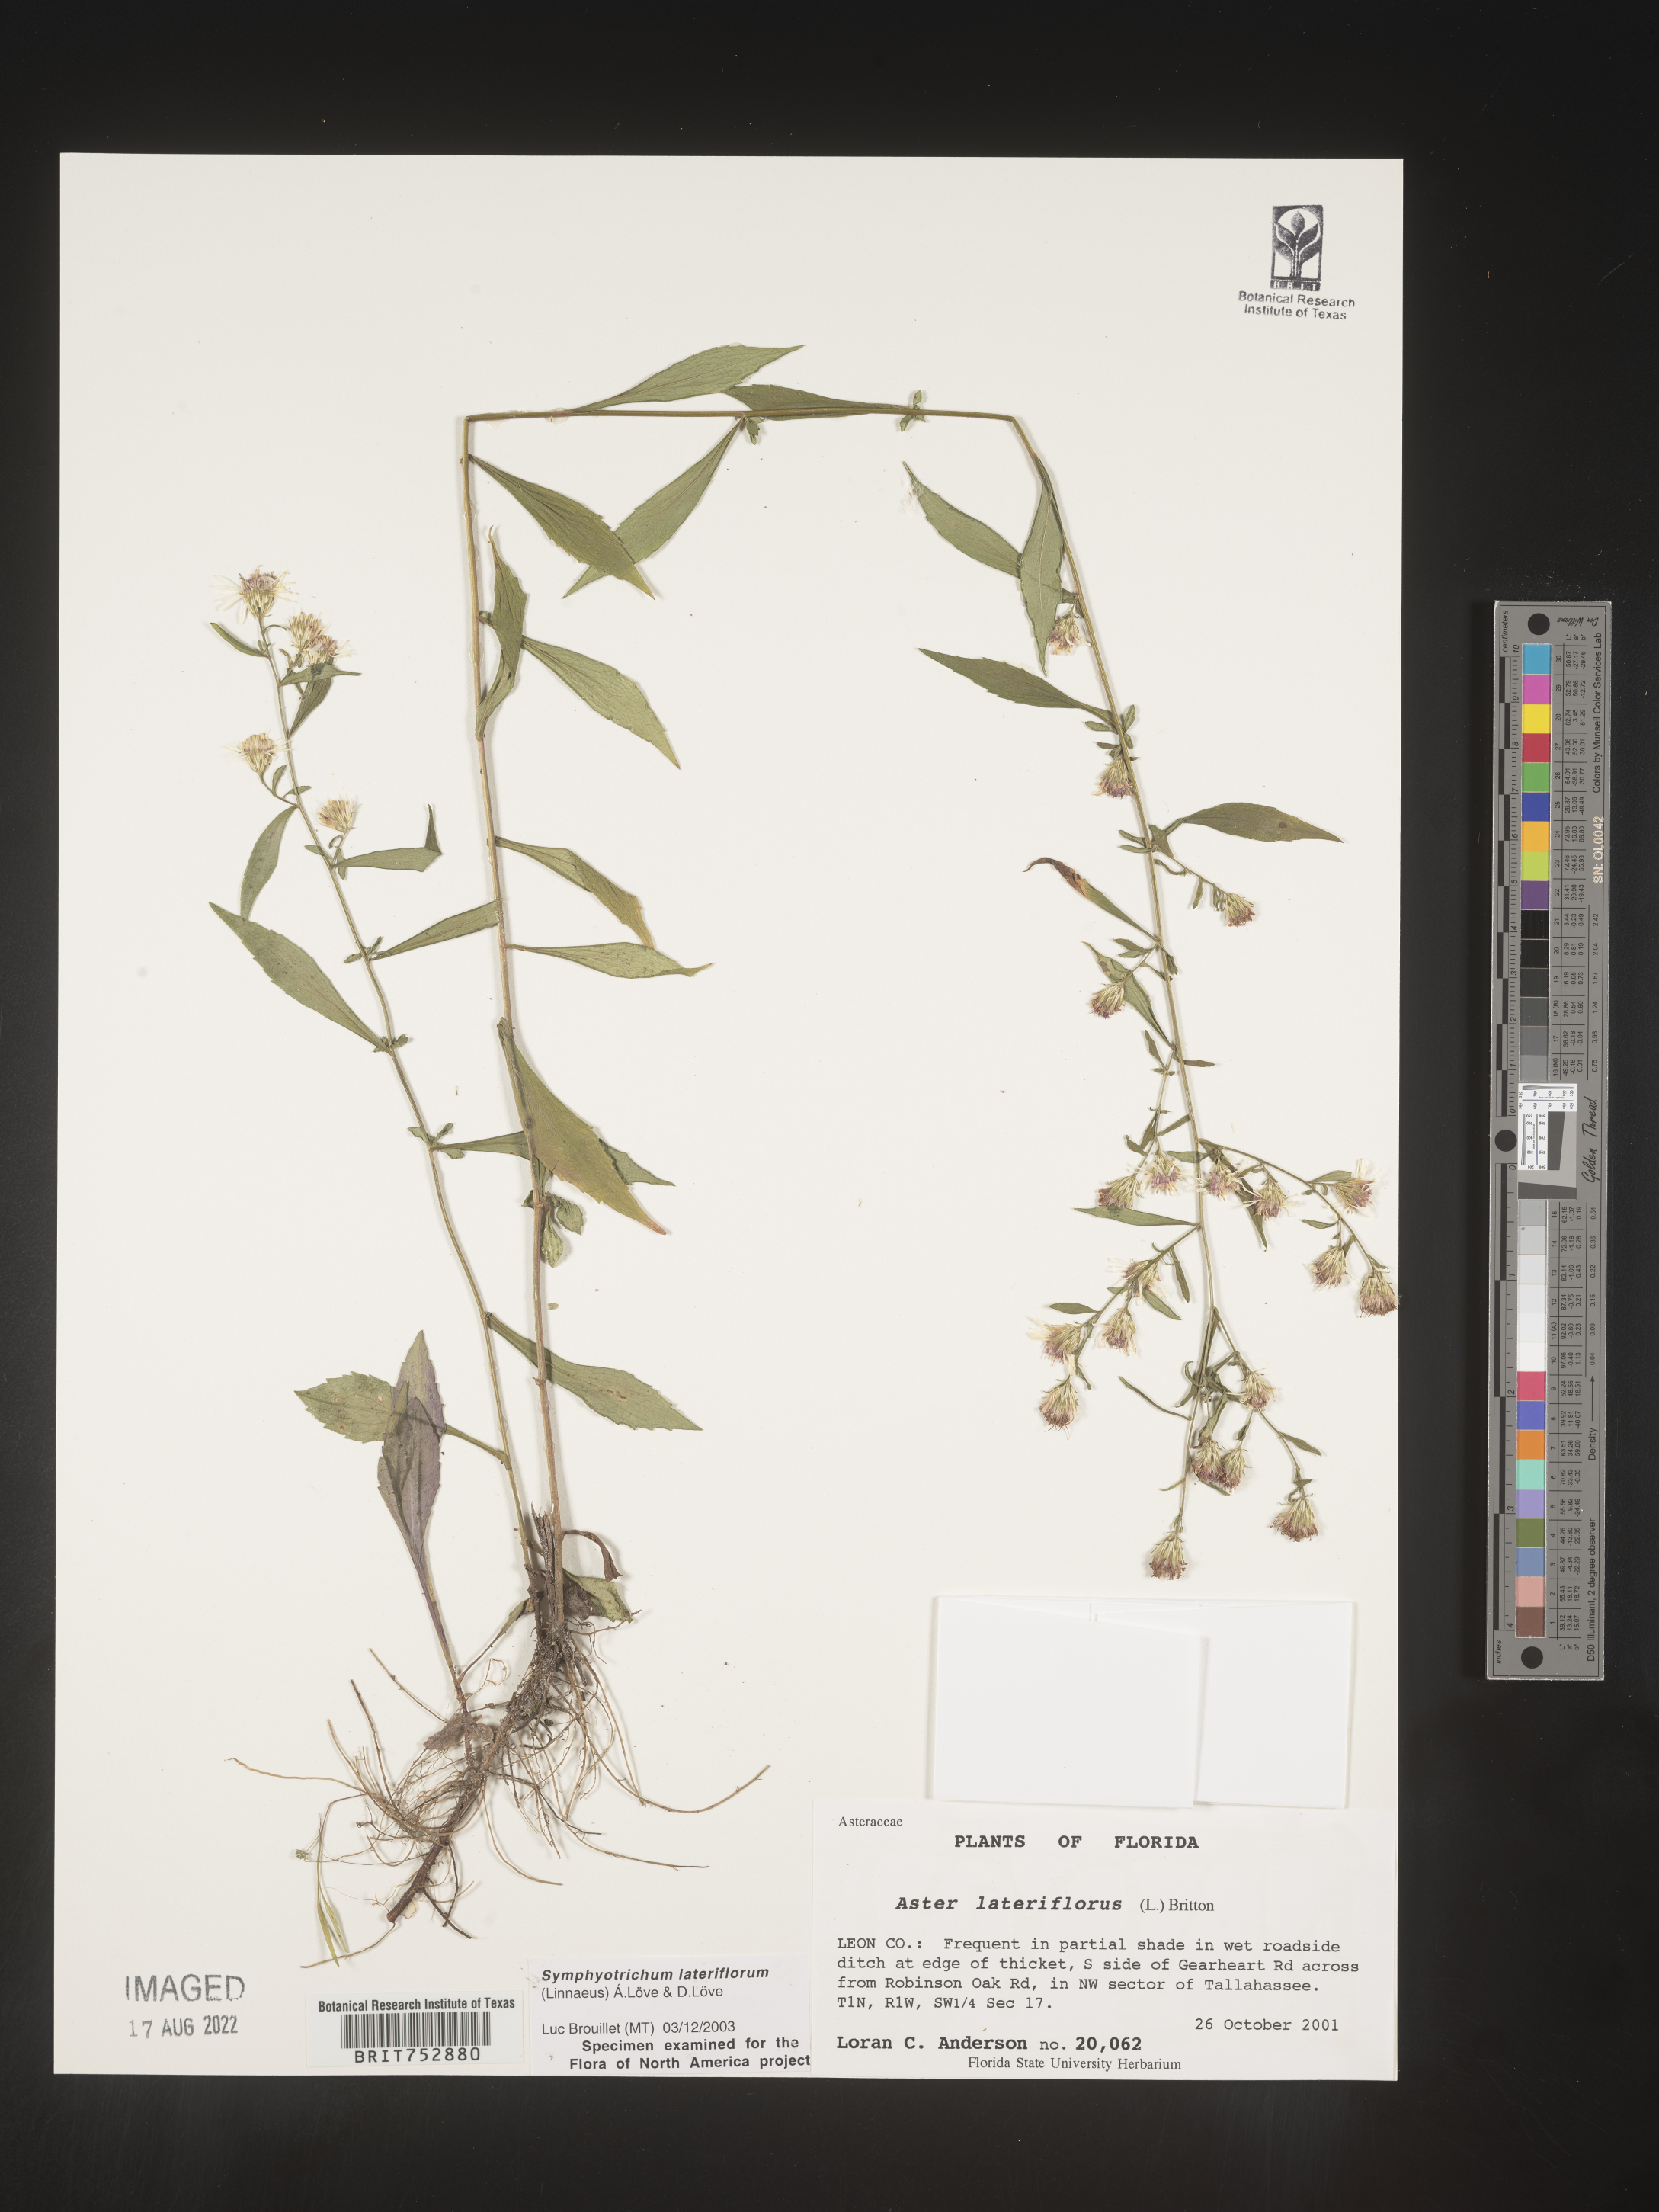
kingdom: Plantae
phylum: Tracheophyta
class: Magnoliopsida
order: Asterales
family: Asteraceae
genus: Symphyotrichum
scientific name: Symphyotrichum lateriflorum
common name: Calico aster
